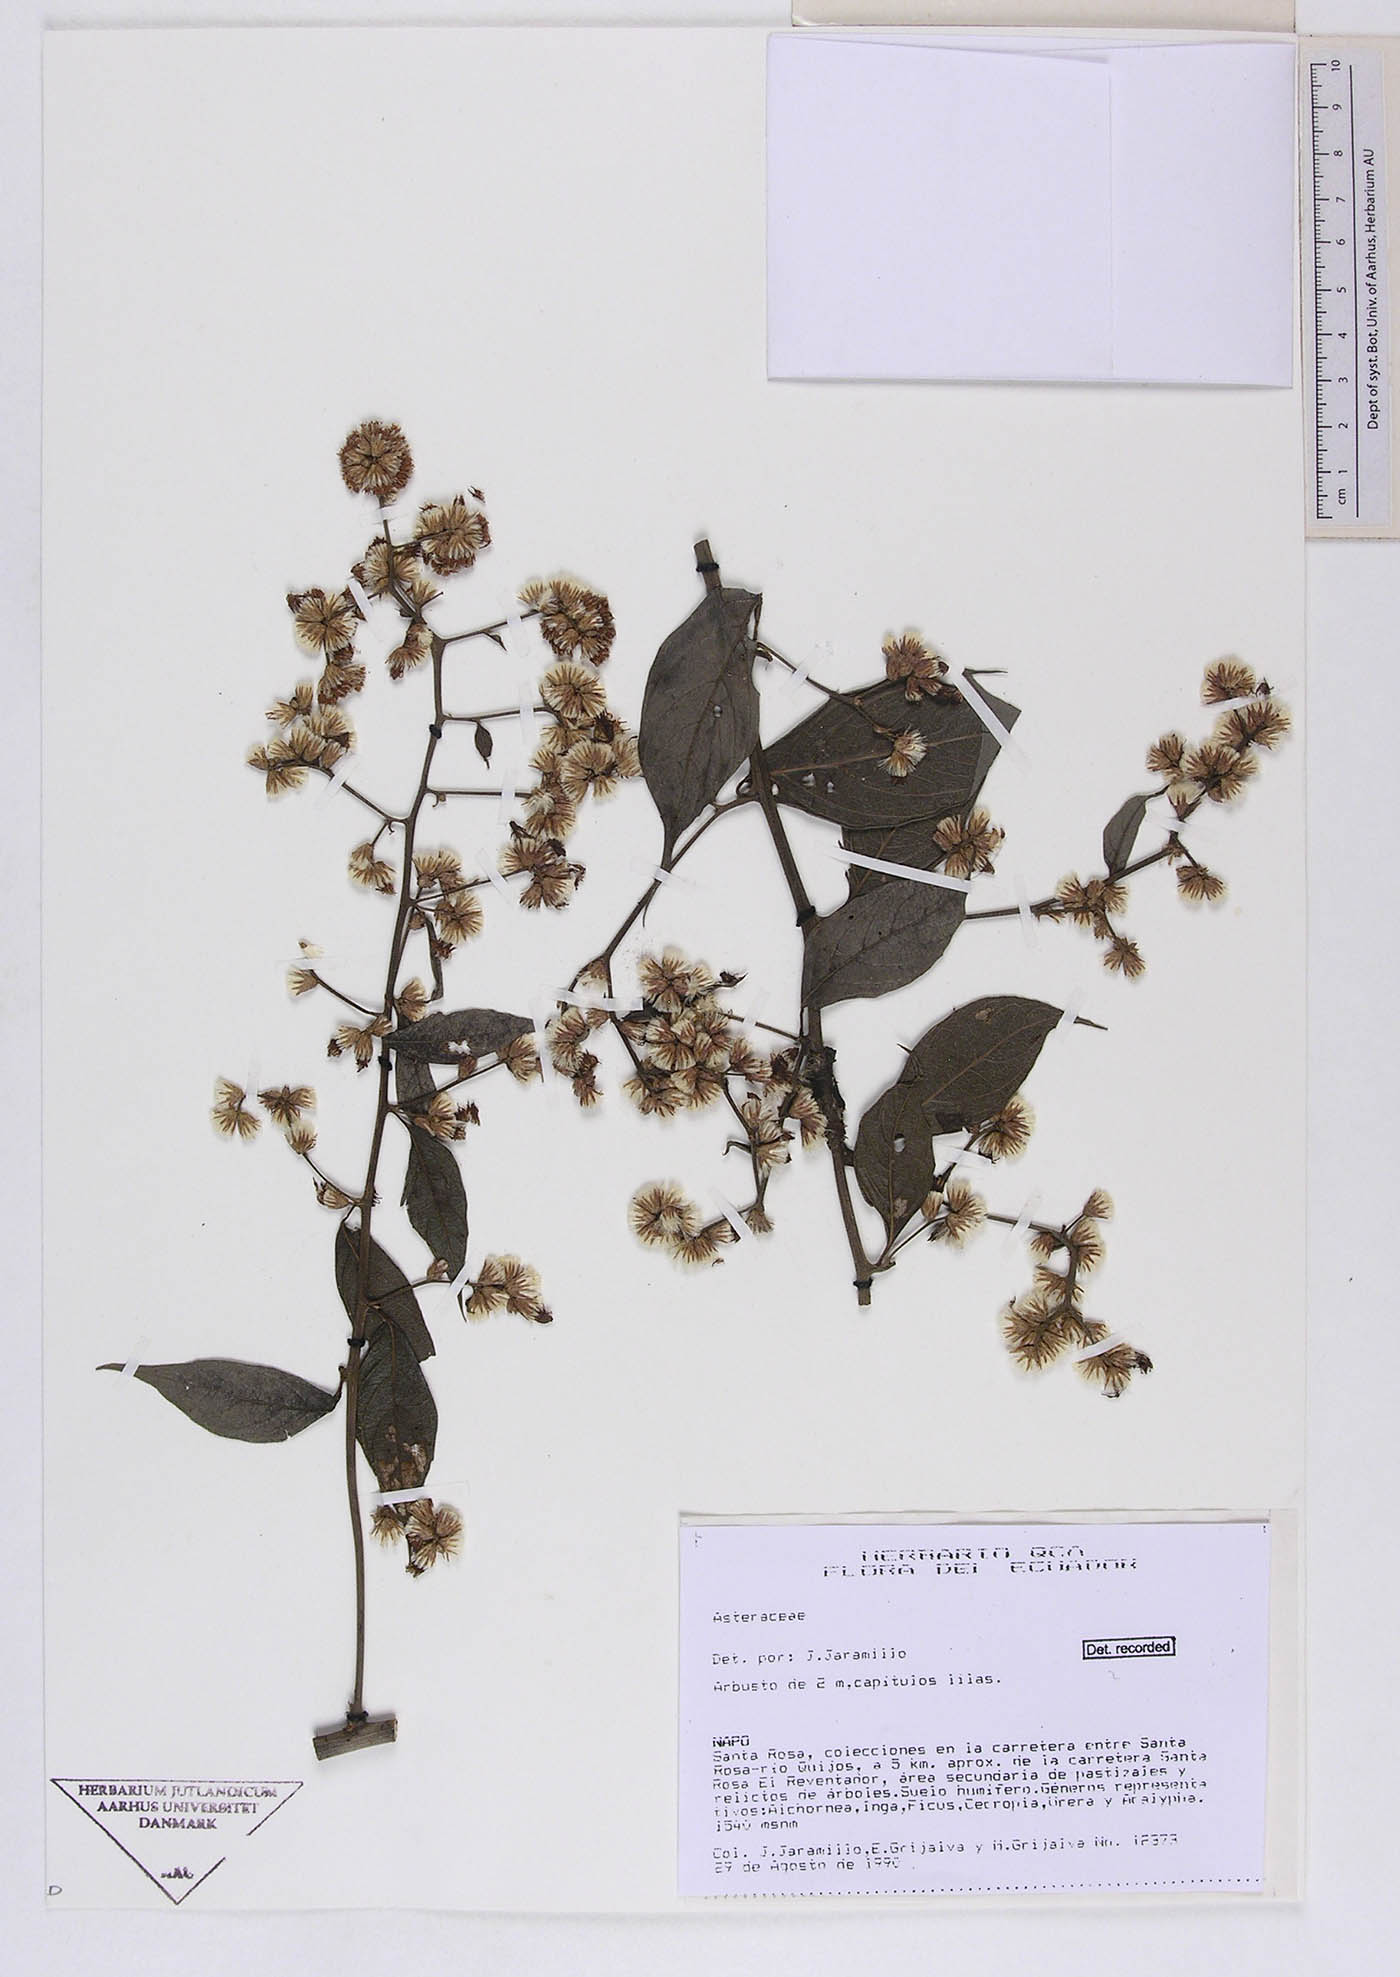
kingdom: Plantae
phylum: Tracheophyta
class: Magnoliopsida
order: Asterales
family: Asteraceae
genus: Lepidaploa
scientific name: Lepidaploa lehmannii
